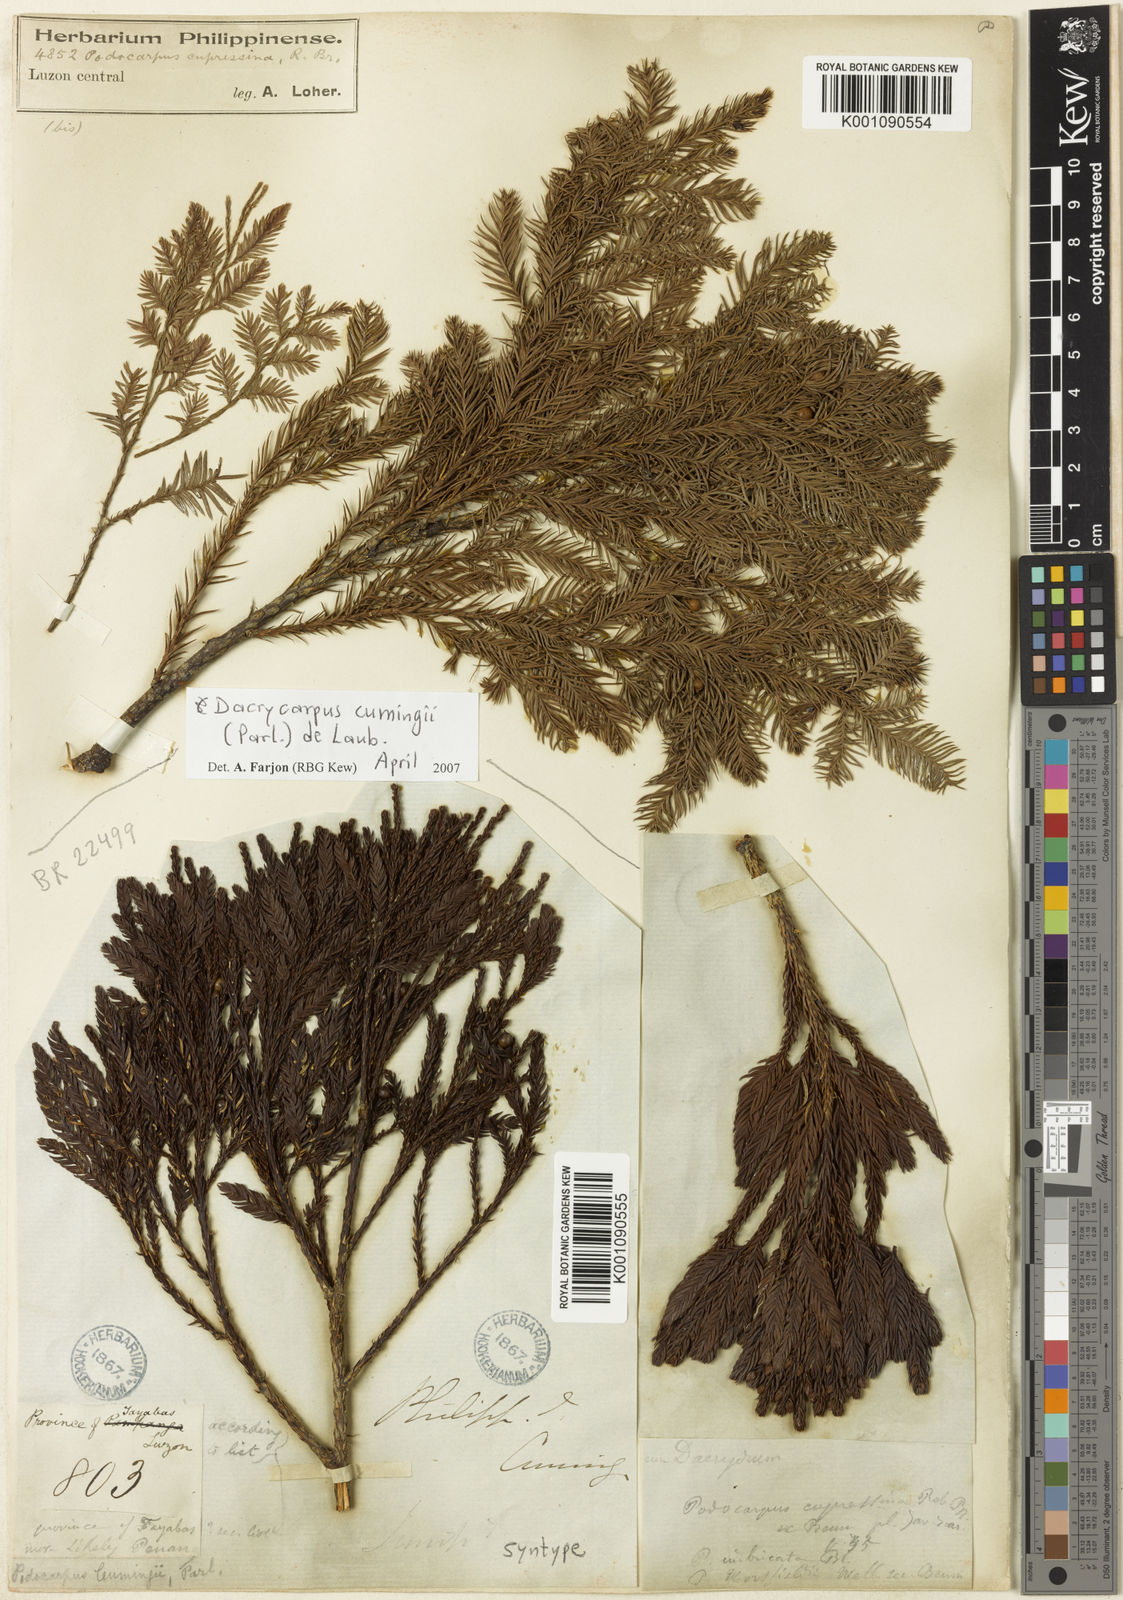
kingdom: Plantae
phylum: Tracheophyta
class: Pinopsida
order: Pinales
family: Podocarpaceae
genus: Dacrycarpus
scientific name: Dacrycarpus cumingii
